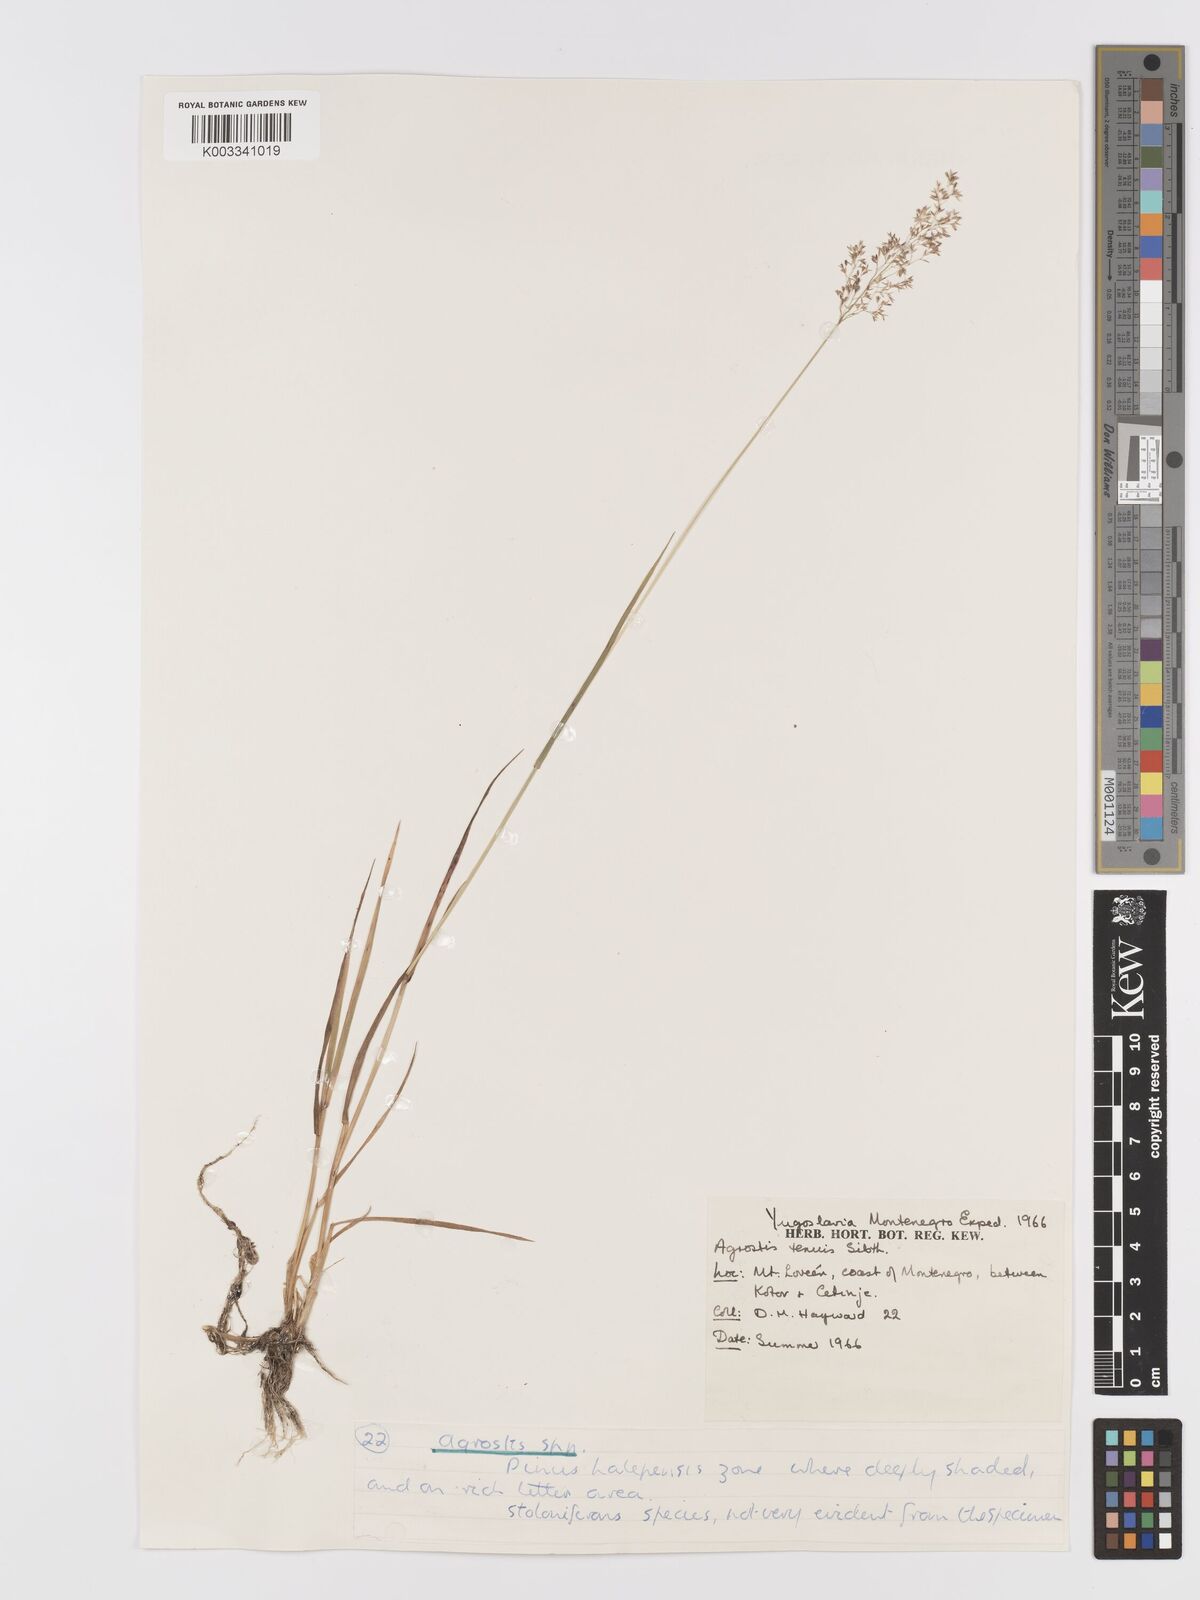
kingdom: Plantae
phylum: Tracheophyta
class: Liliopsida
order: Poales
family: Poaceae
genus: Agrostis
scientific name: Agrostis capillaris
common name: Colonial bentgrass
